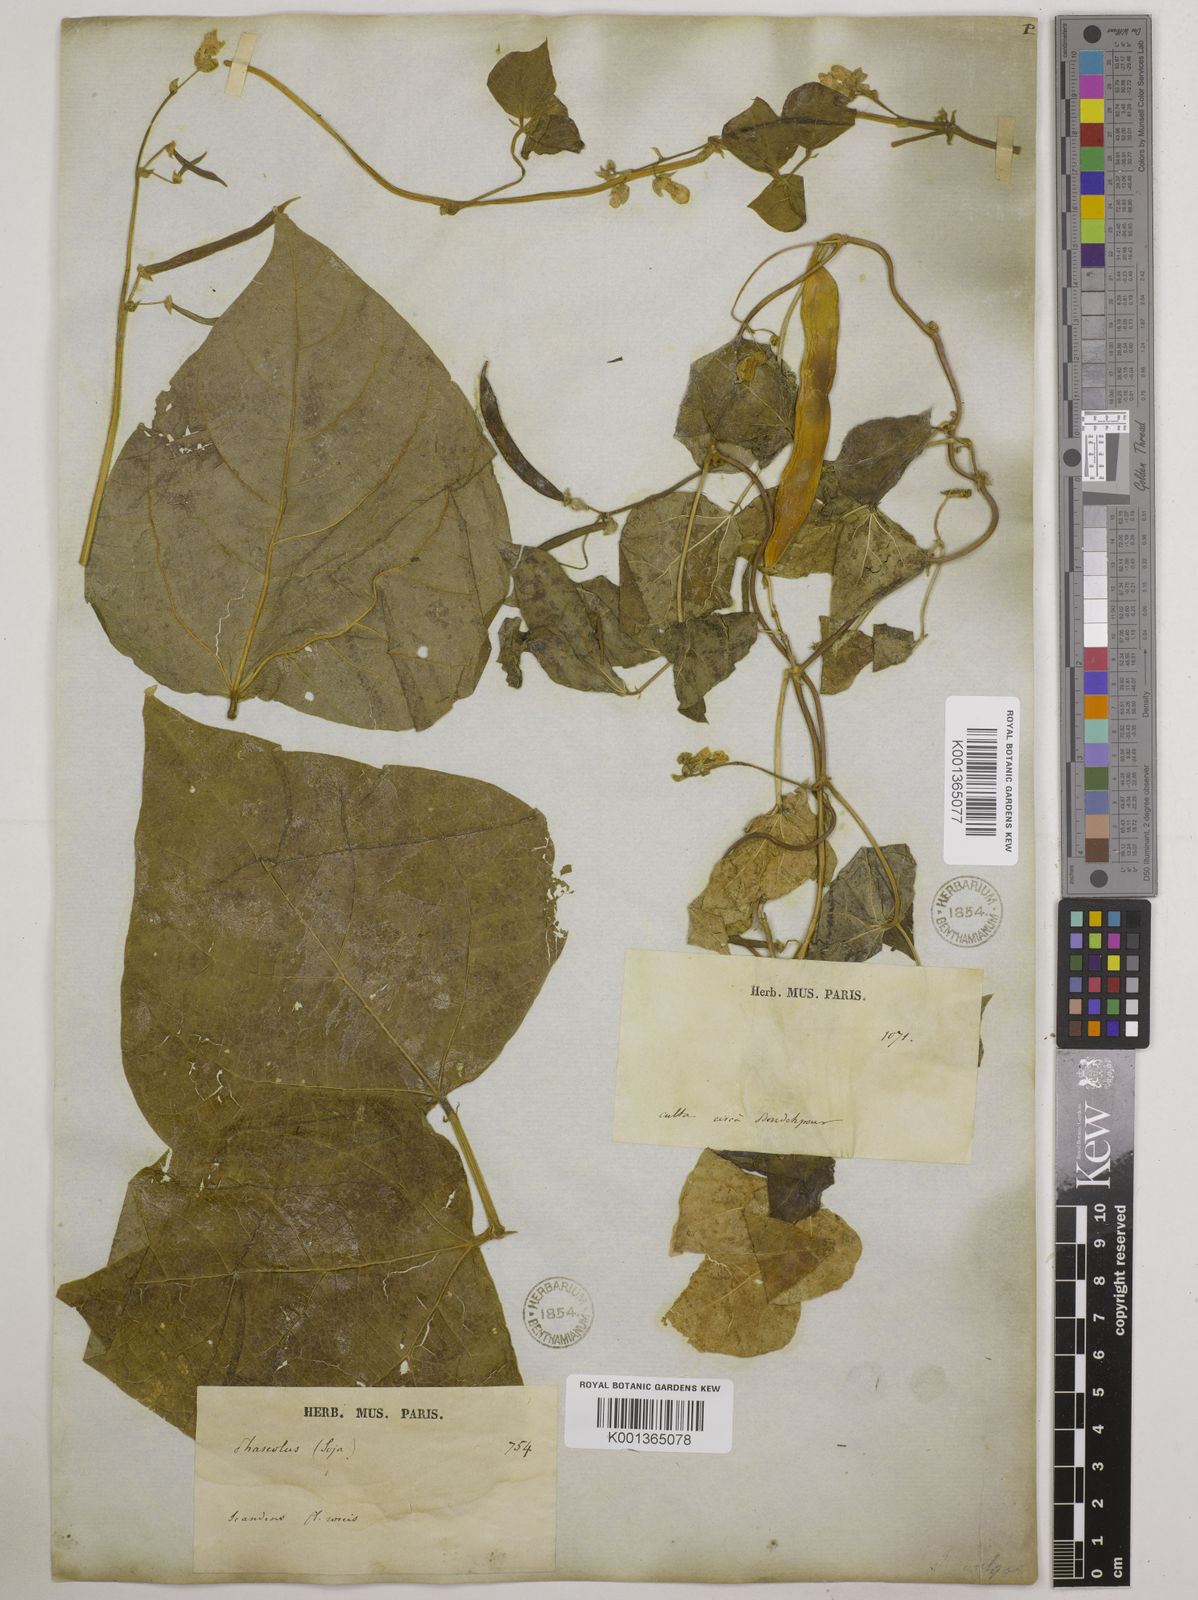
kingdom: Plantae
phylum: Tracheophyta
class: Magnoliopsida
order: Fabales
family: Fabaceae
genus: Phaseolus
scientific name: Phaseolus vulgaris
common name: Bean
